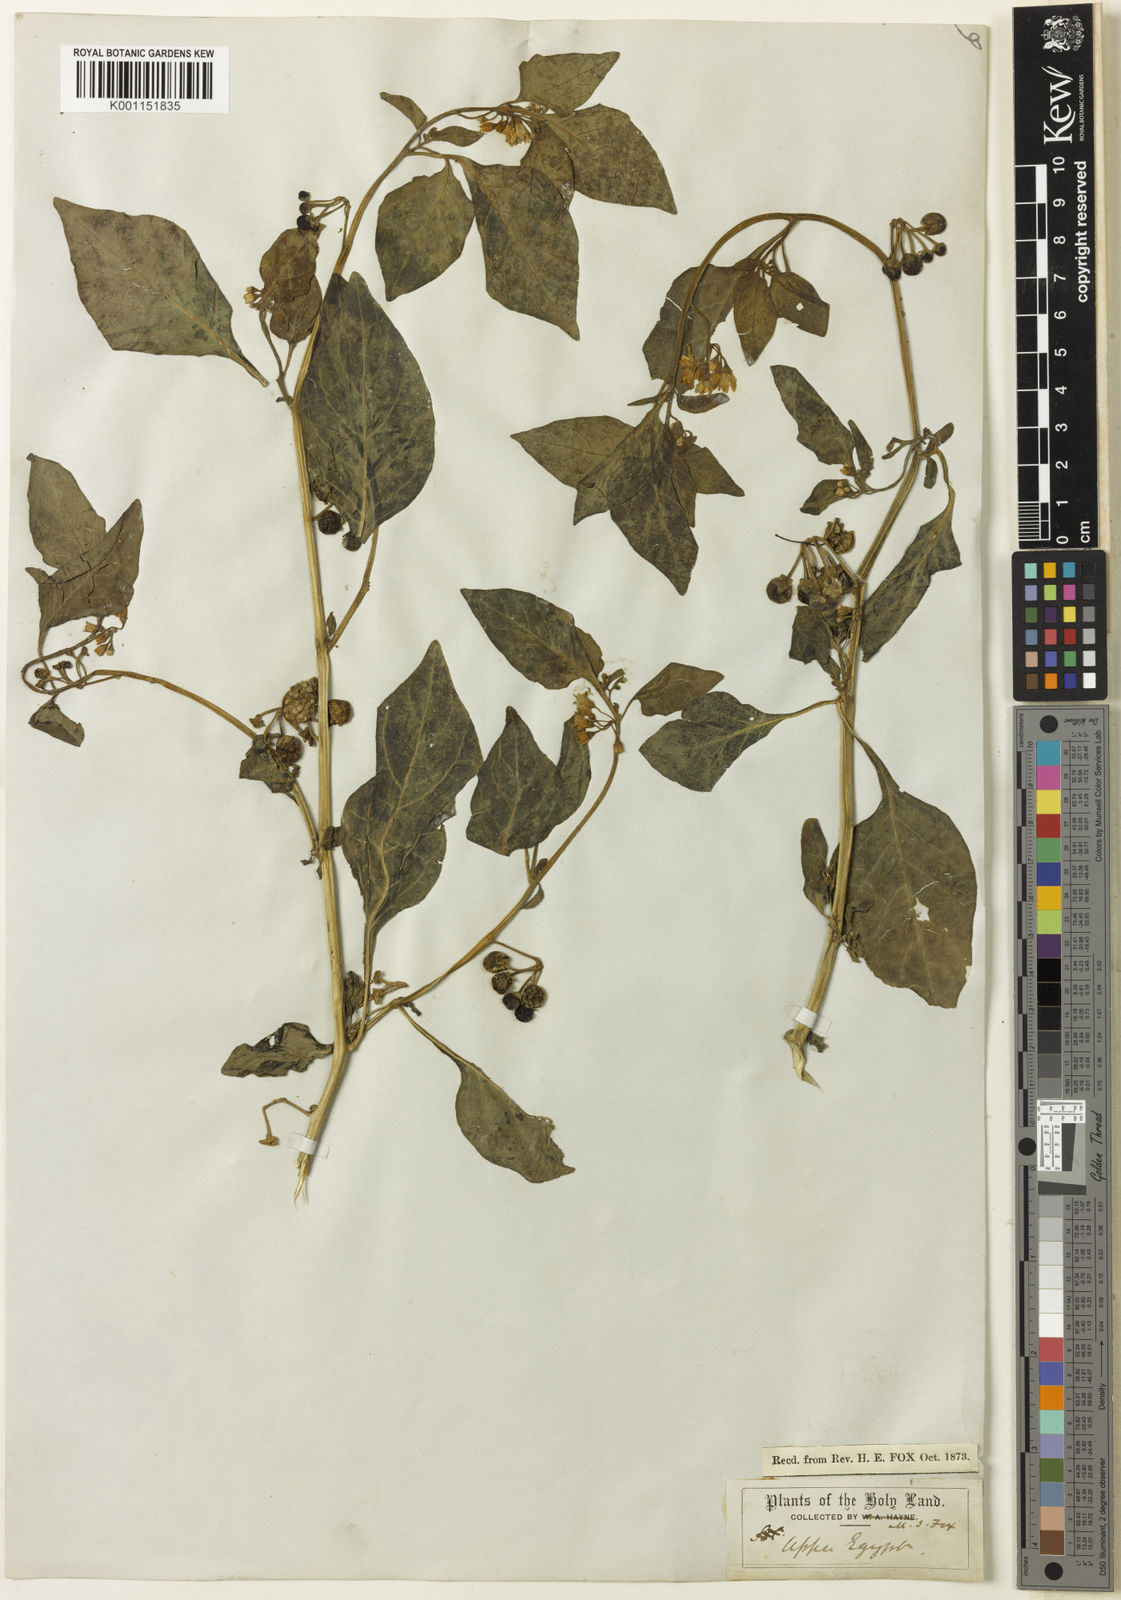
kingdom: Plantae
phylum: Tracheophyta
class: Magnoliopsida
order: Solanales
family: Solanaceae
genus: Solanum
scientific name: Solanum nigrum
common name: Black nightshade
